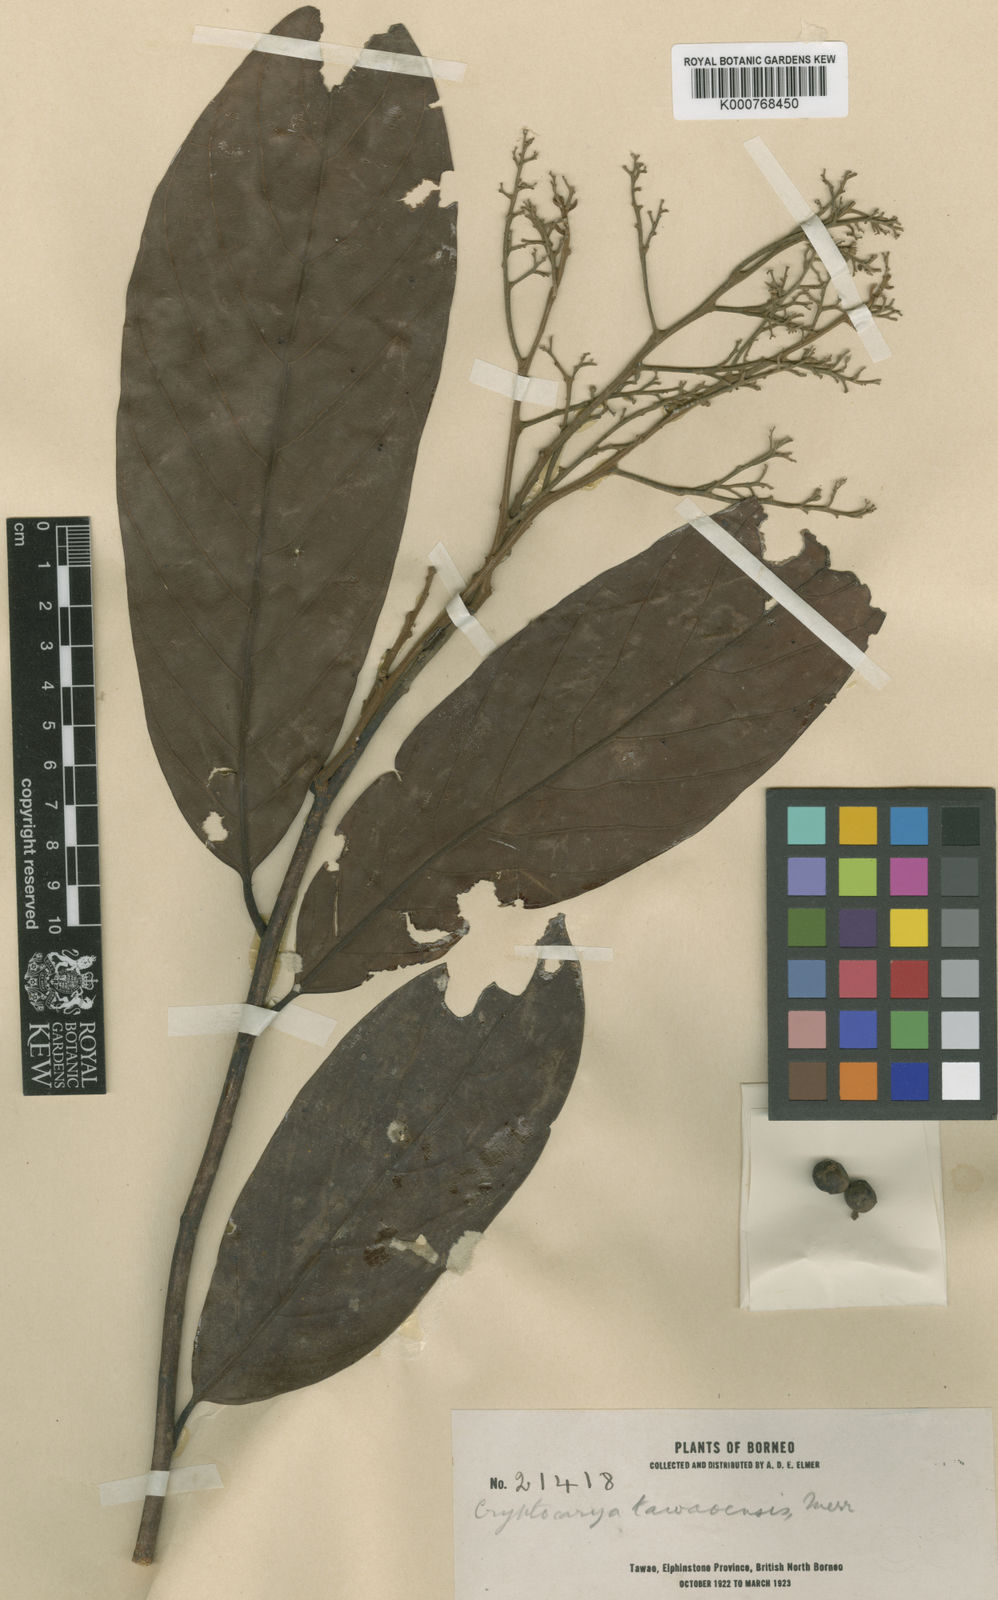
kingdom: Plantae
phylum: Tracheophyta
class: Magnoliopsida
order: Laurales
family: Lauraceae
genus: Cryptocarya
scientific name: Cryptocarya tawaensis
